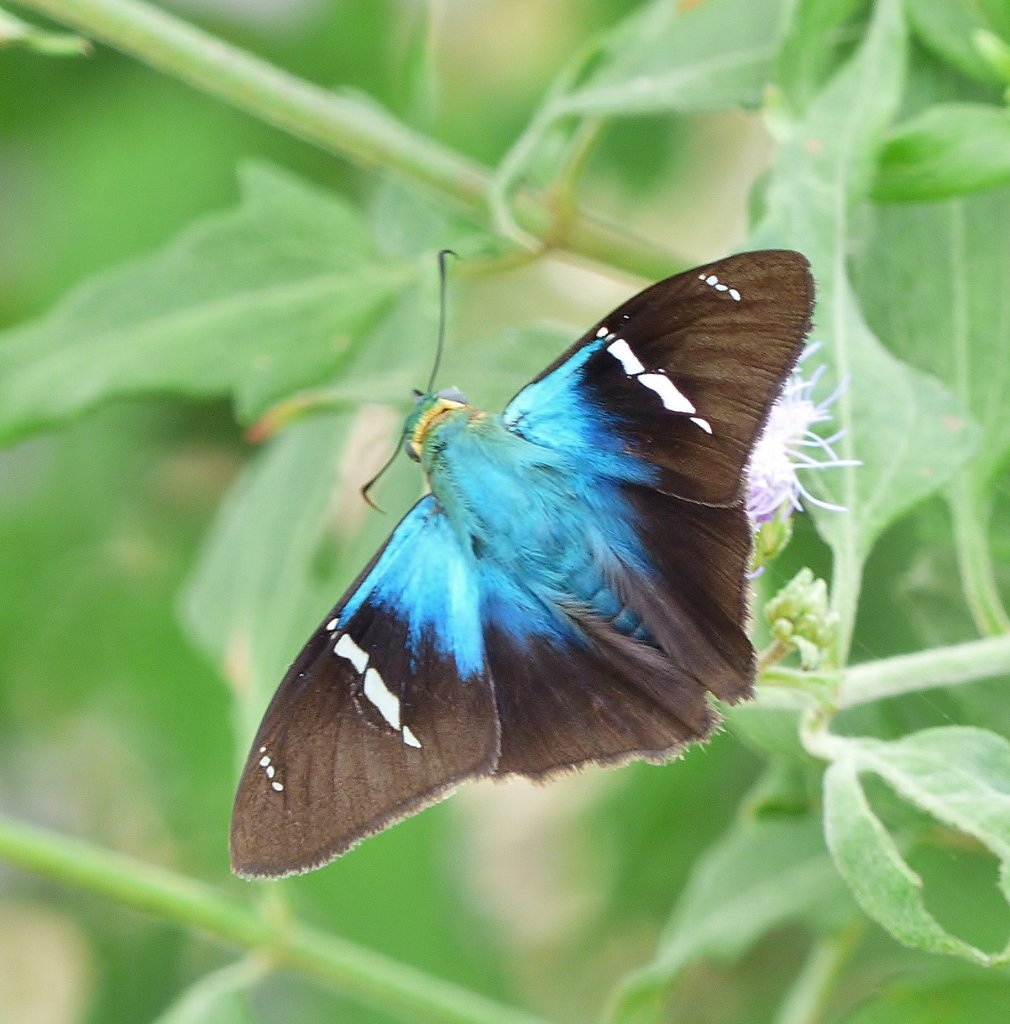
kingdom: Animalia
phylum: Arthropoda
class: Insecta
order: Lepidoptera
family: Hesperiidae
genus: Astraptes
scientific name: Astraptes fulgerator
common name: Two-barred Flasher
